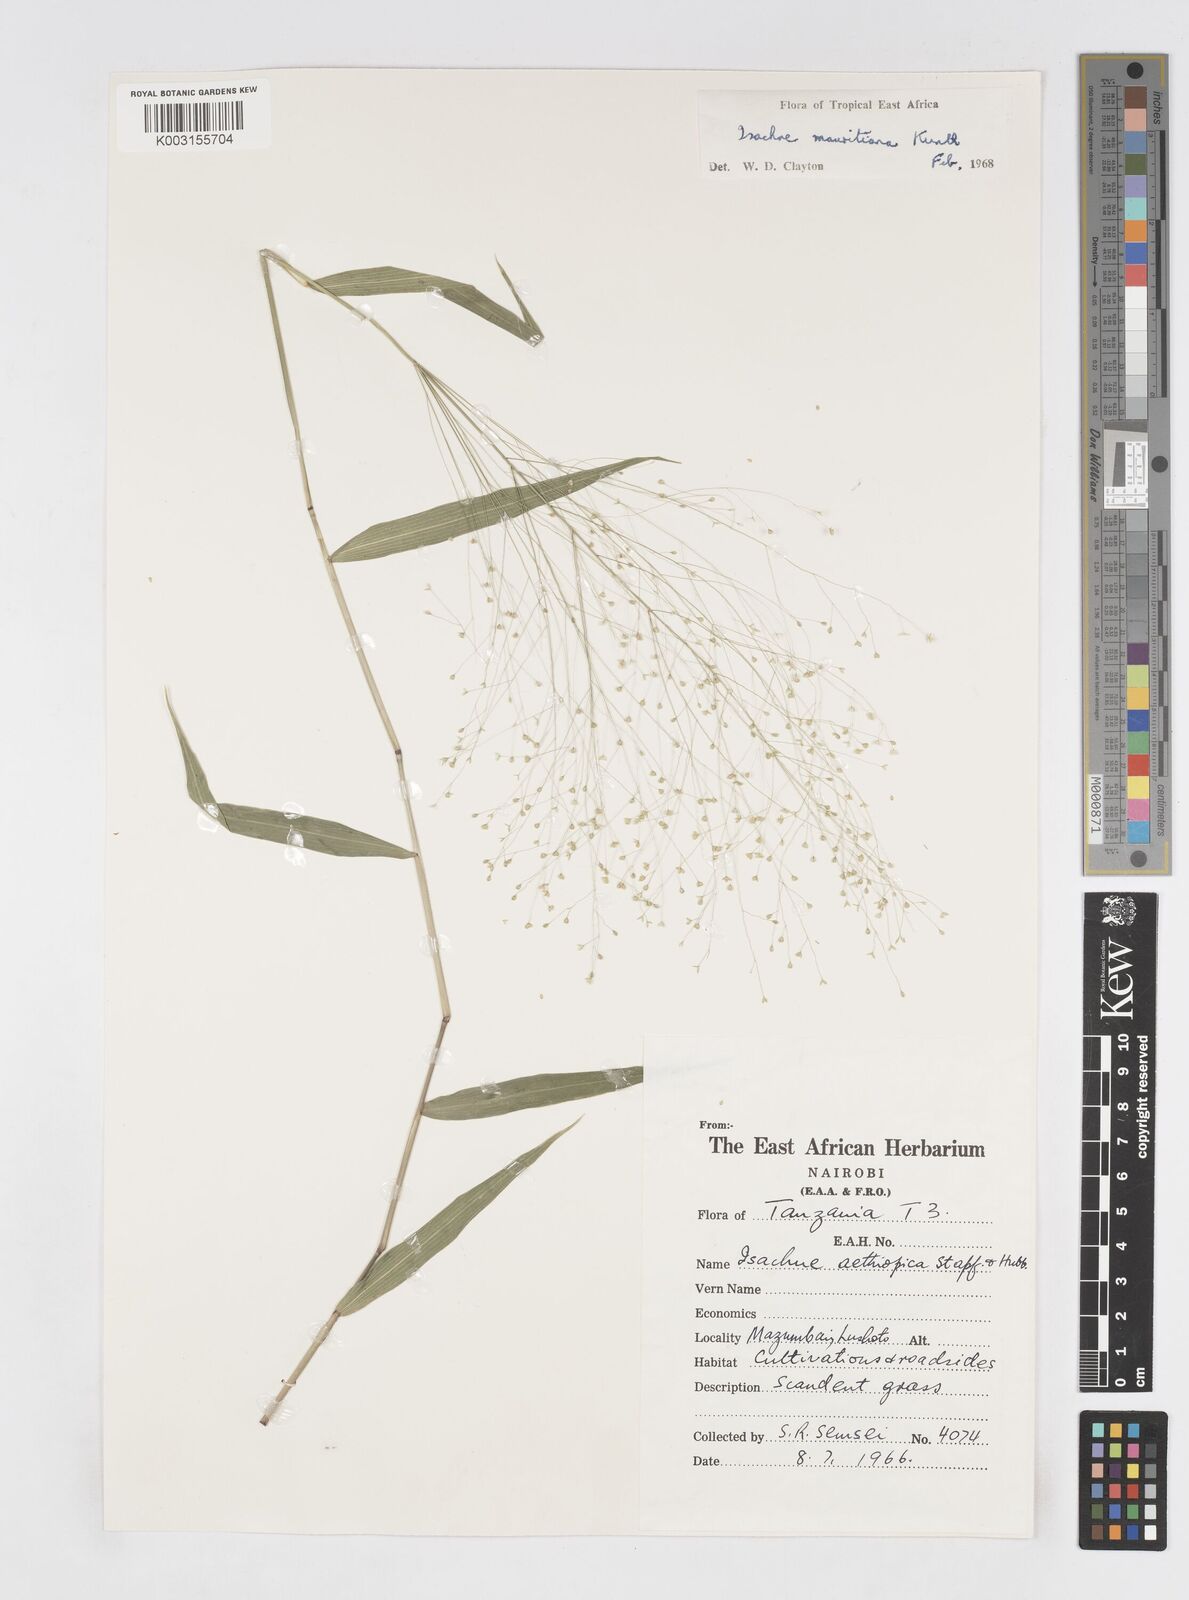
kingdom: Plantae
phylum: Tracheophyta
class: Liliopsida
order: Poales
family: Poaceae
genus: Isachne
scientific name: Isachne mauritiana
